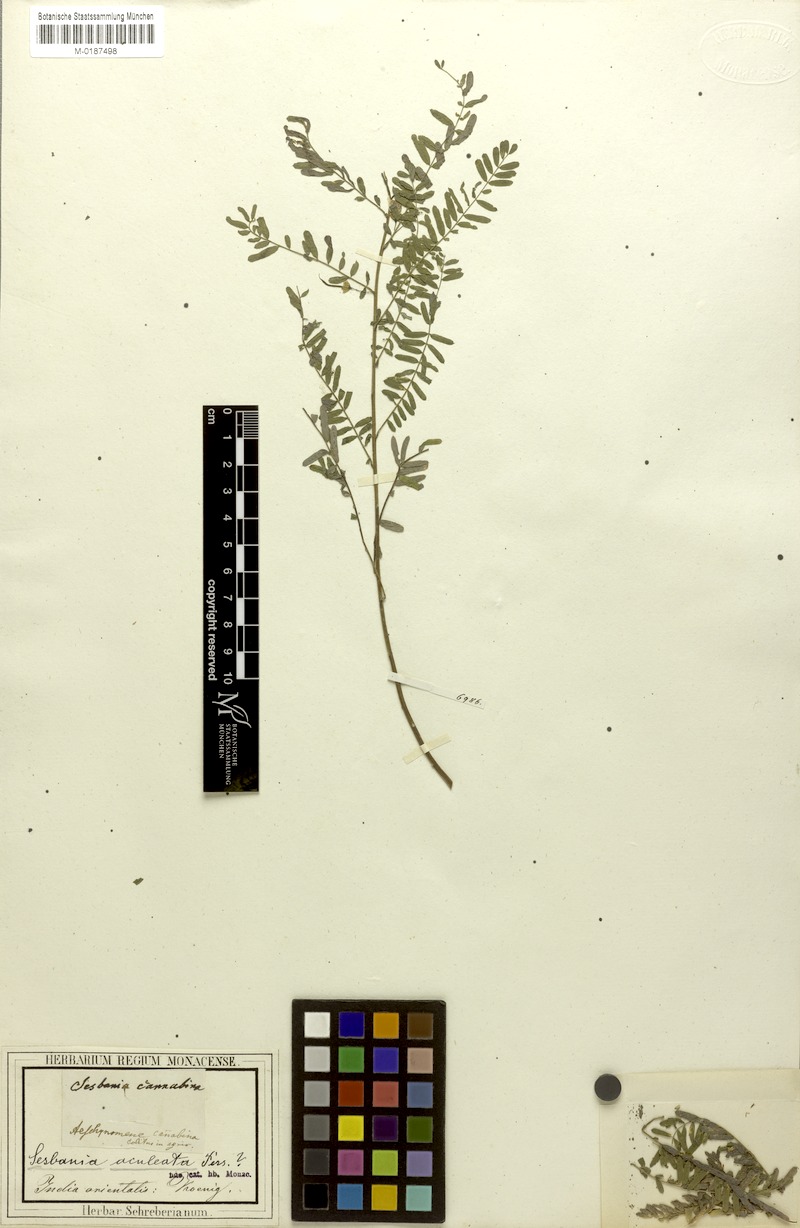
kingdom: Plantae
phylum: Tracheophyta
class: Magnoliopsida
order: Fabales
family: Fabaceae
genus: Sesbania
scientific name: Sesbania bispinosa
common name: Sesbania pea
